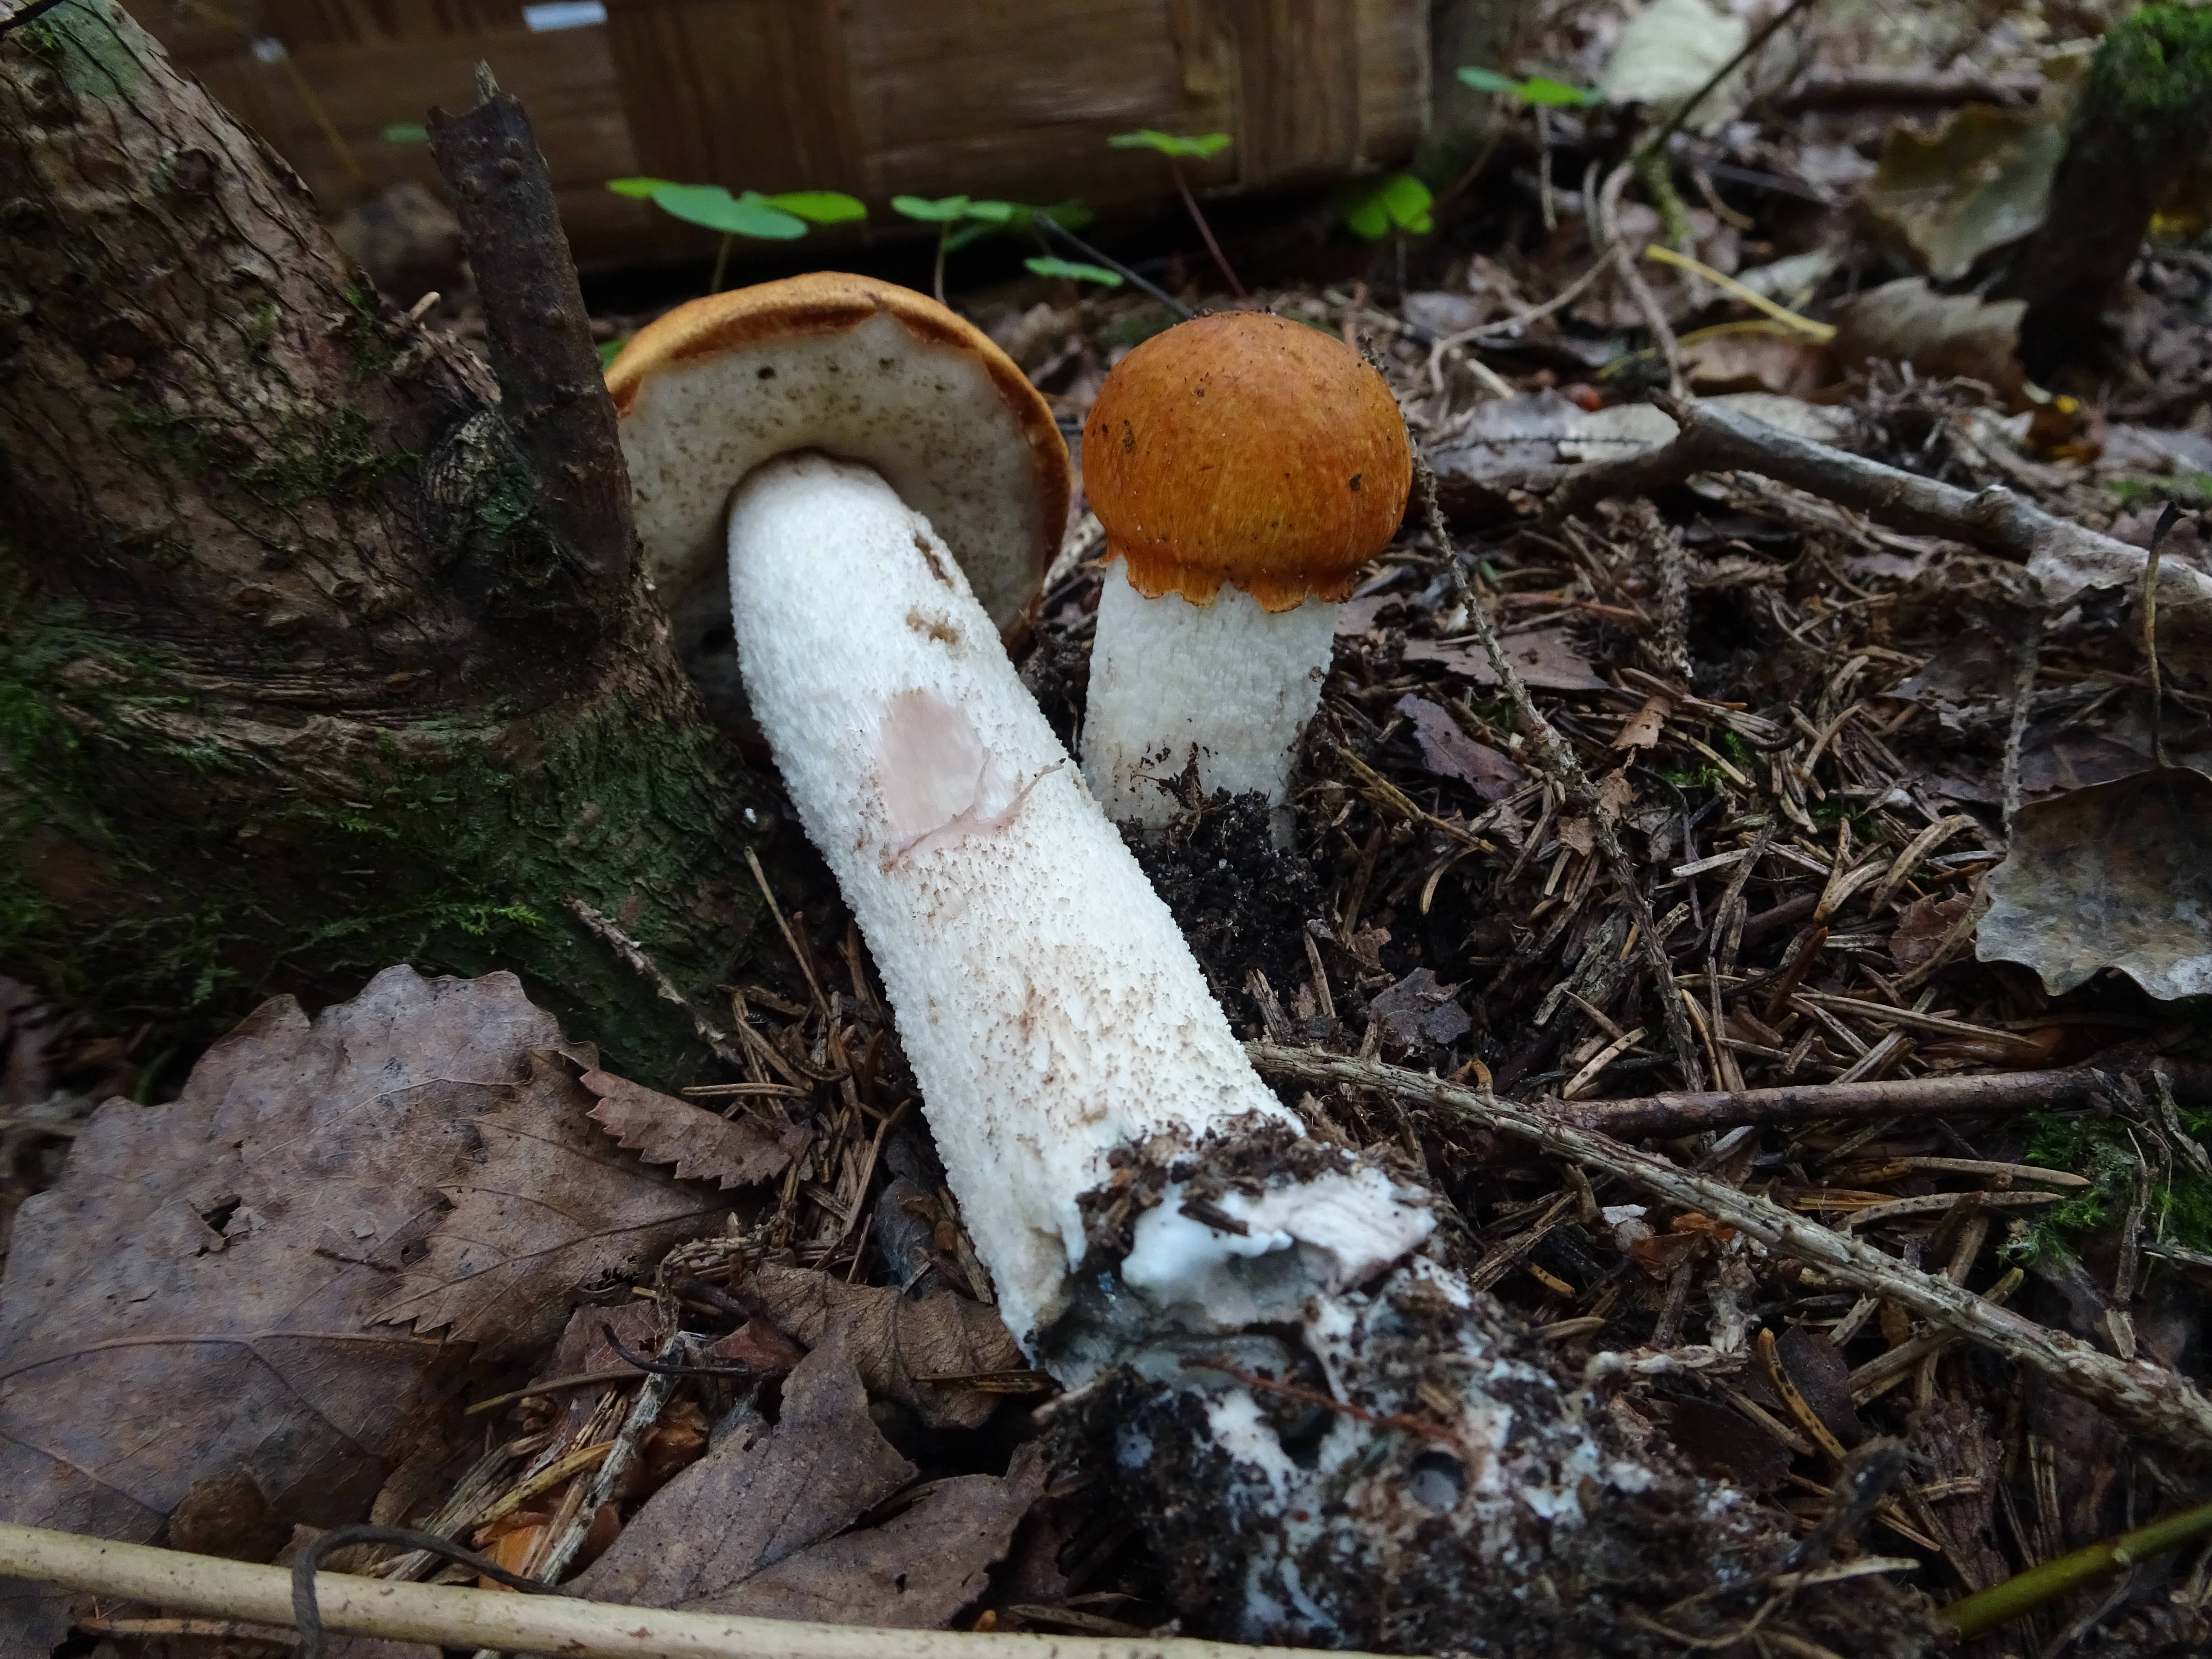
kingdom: Fungi
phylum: Basidiomycota
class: Agaricomycetes
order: Boletales
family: Boletaceae
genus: Leccinum
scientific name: Leccinum albostipitatum
